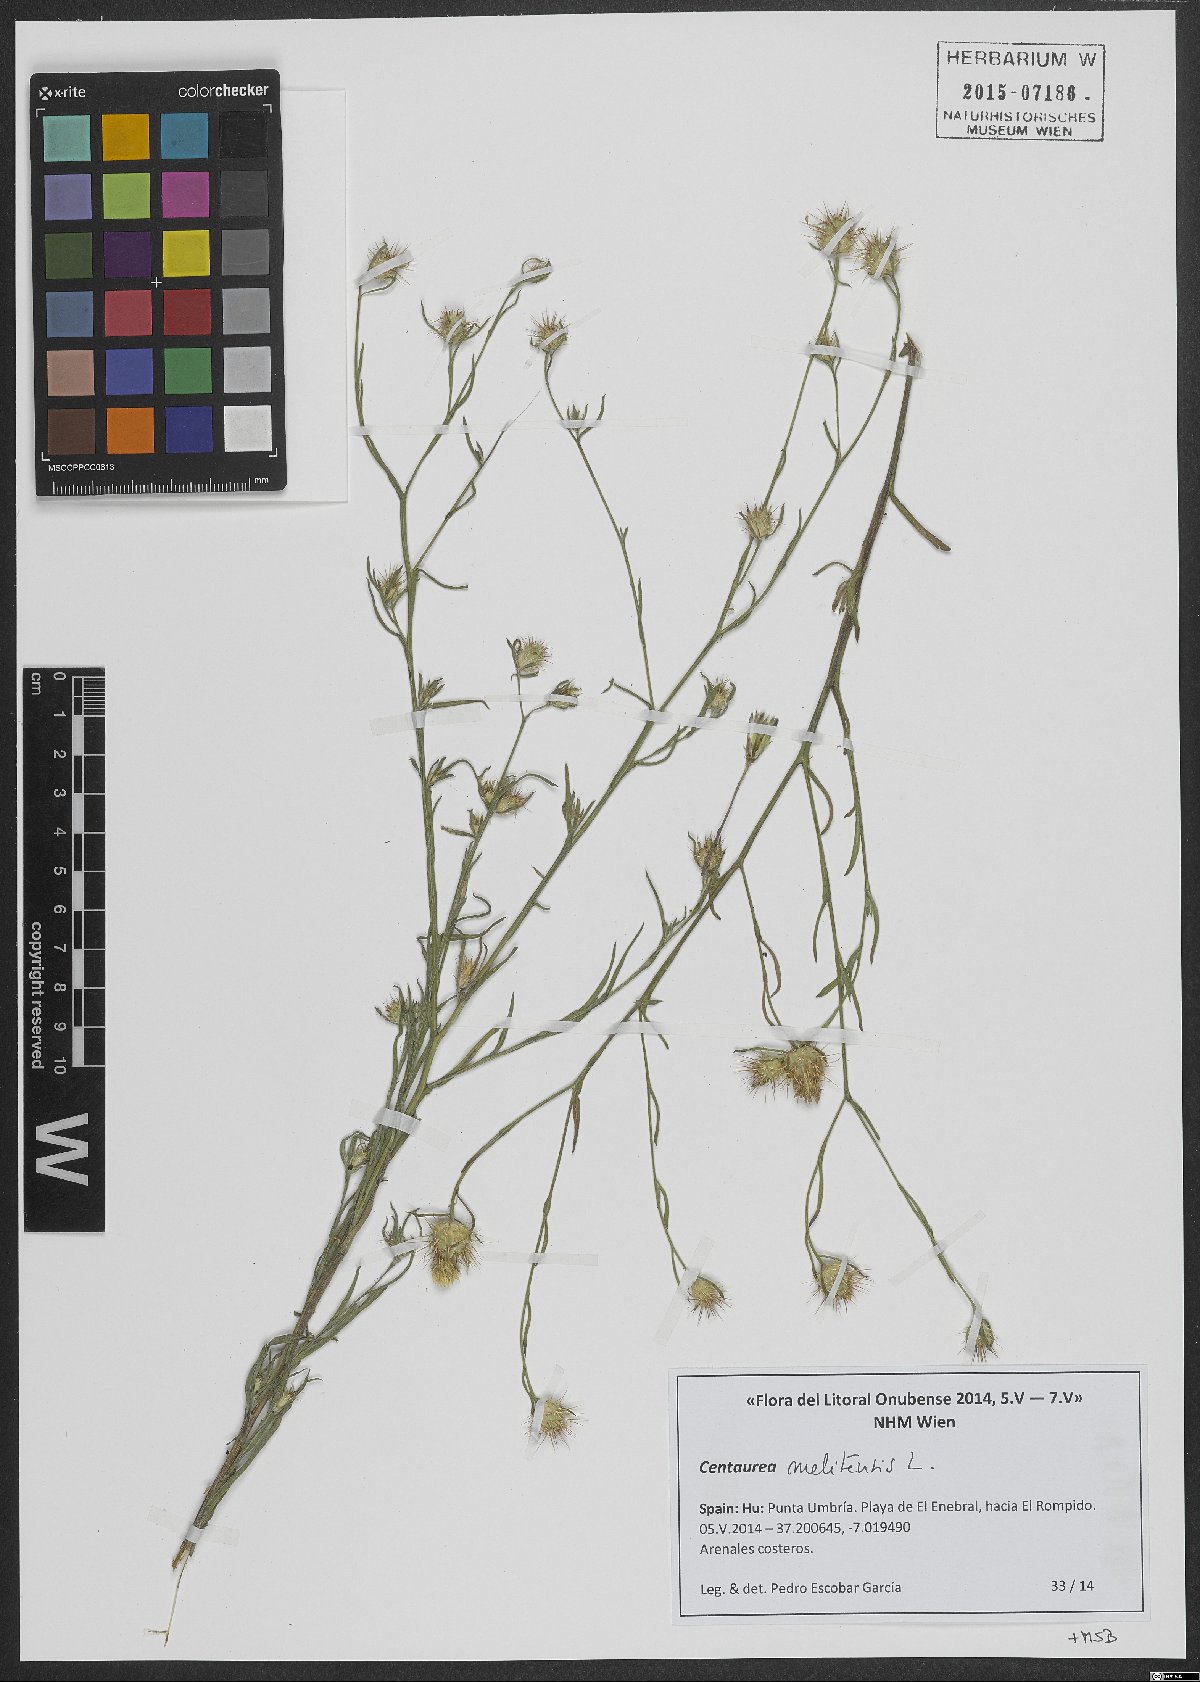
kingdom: Plantae
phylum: Tracheophyta
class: Magnoliopsida
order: Asterales
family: Asteraceae
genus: Centaurea
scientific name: Centaurea melitensis
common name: Maltese star-thistle
